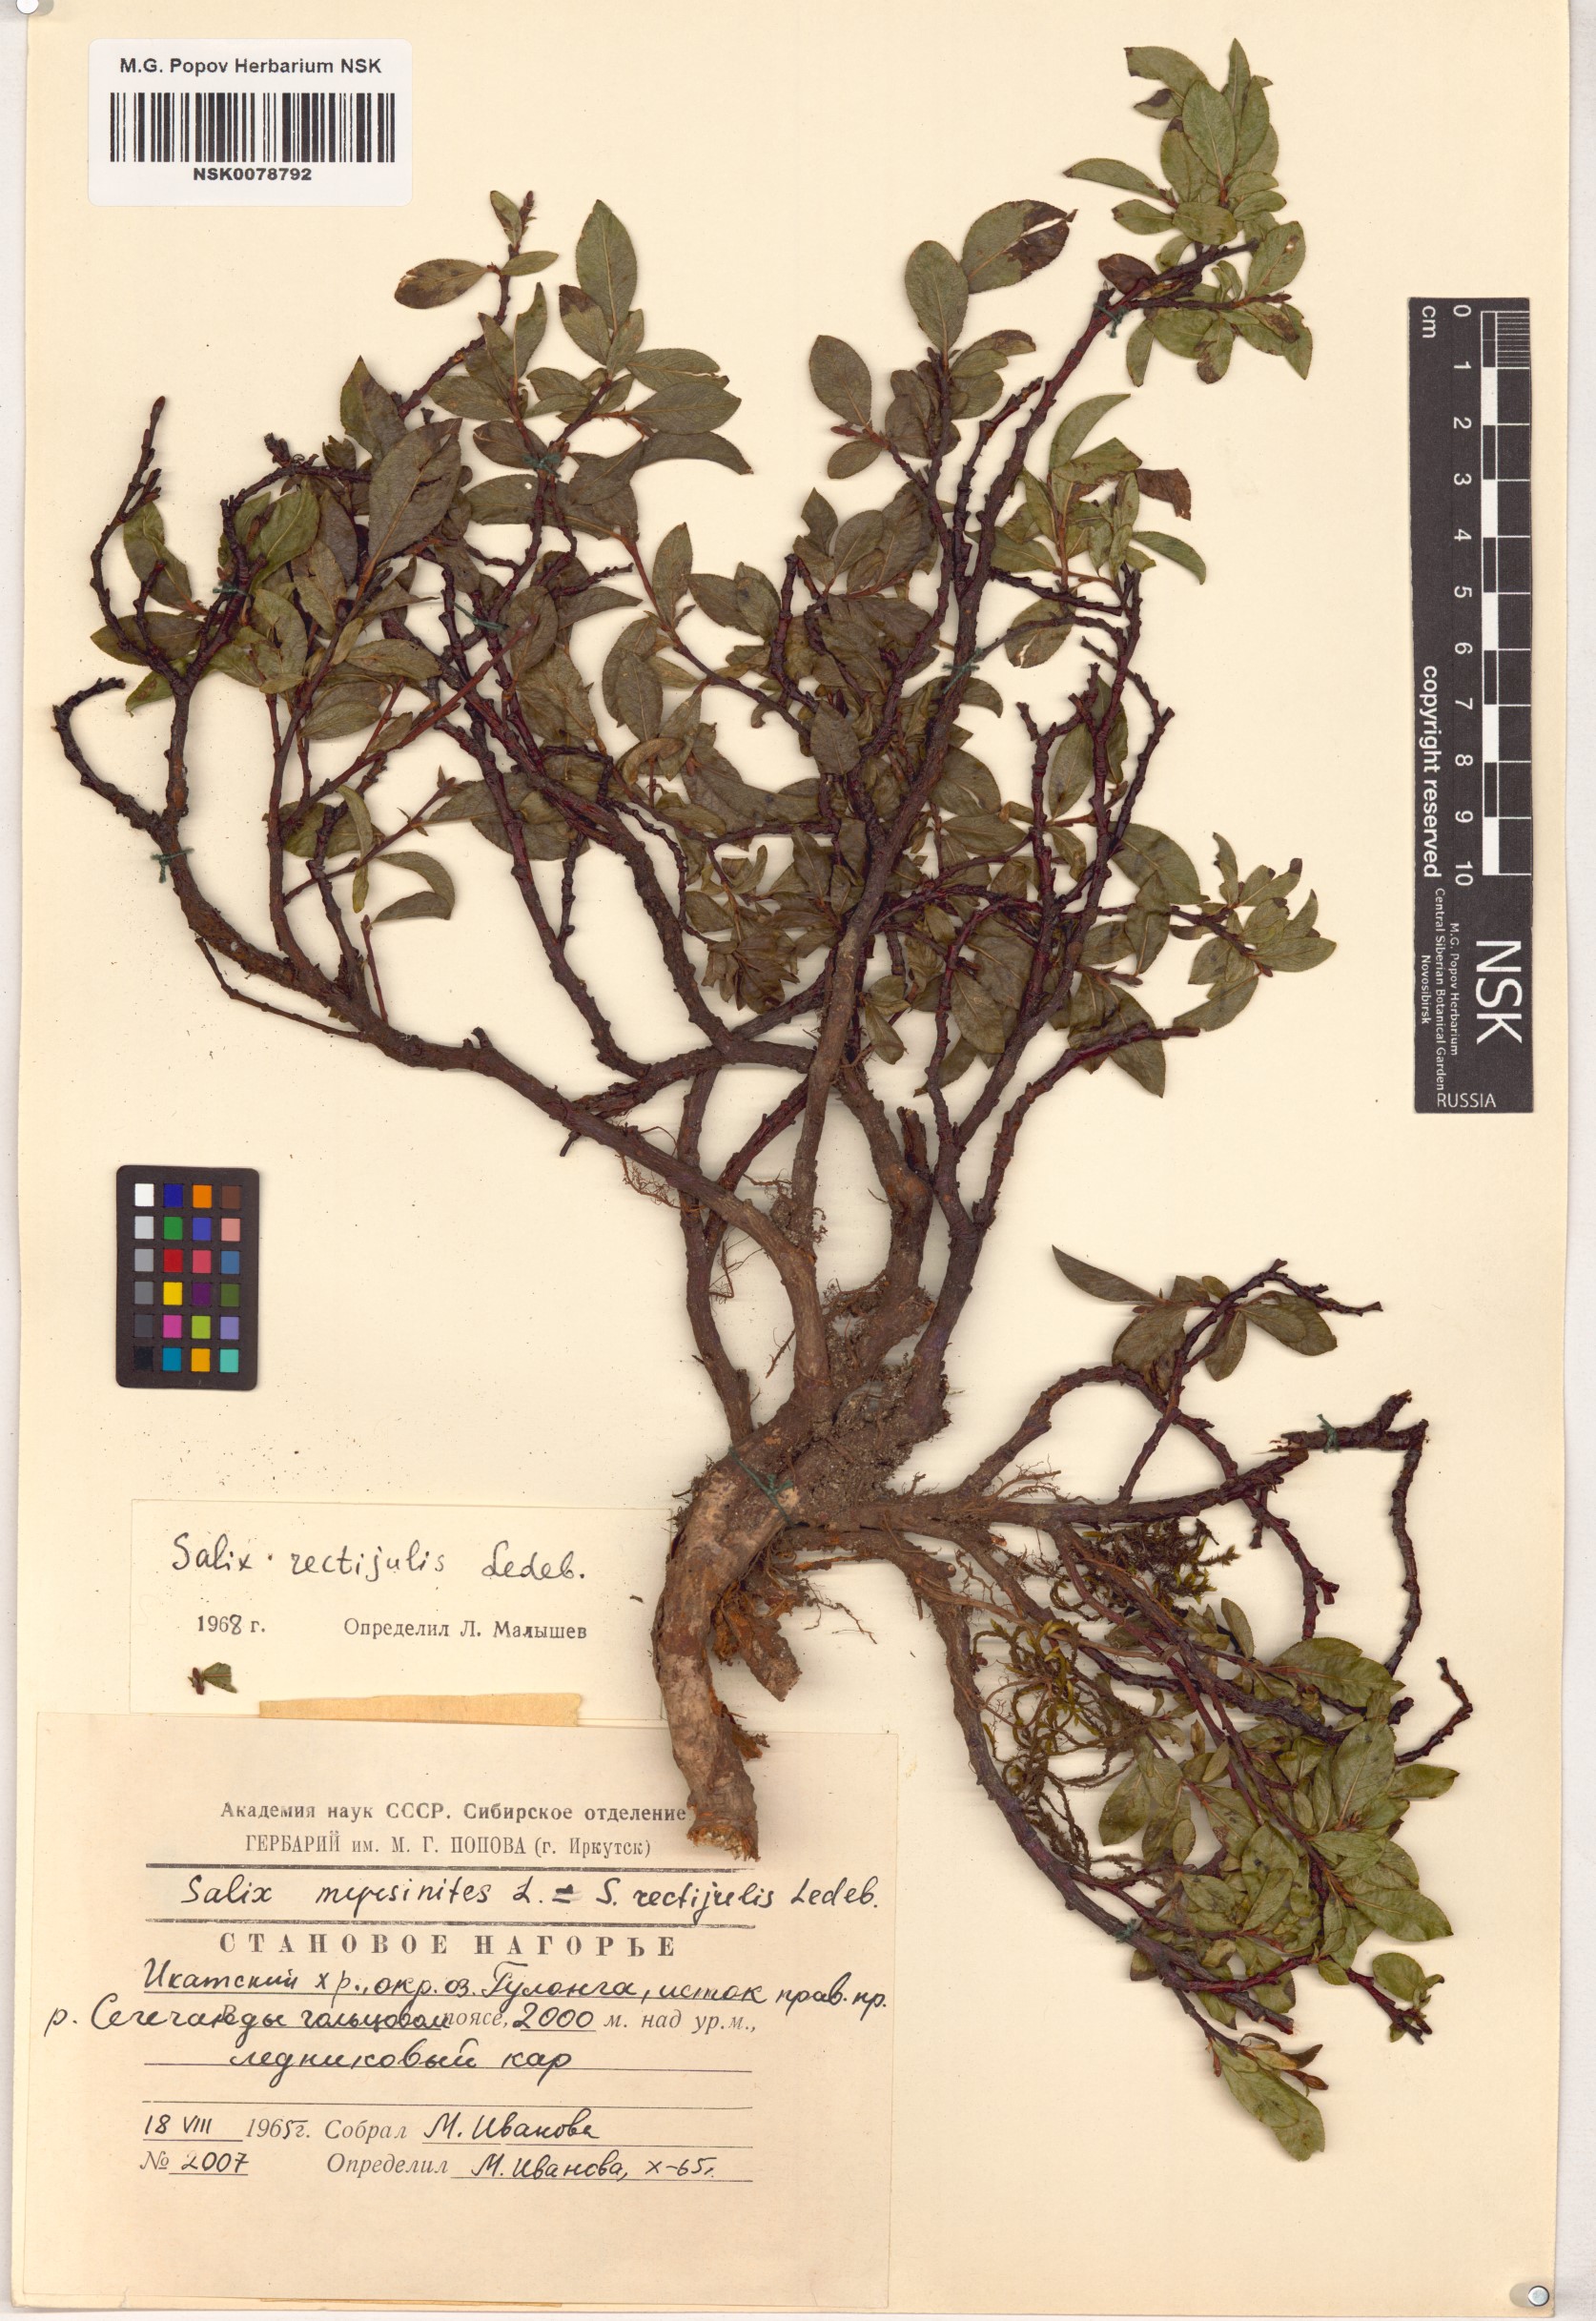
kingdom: Plantae
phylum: Tracheophyta
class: Magnoliopsida
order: Malpighiales
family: Salicaceae
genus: Salix
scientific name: Salix rectijulis
